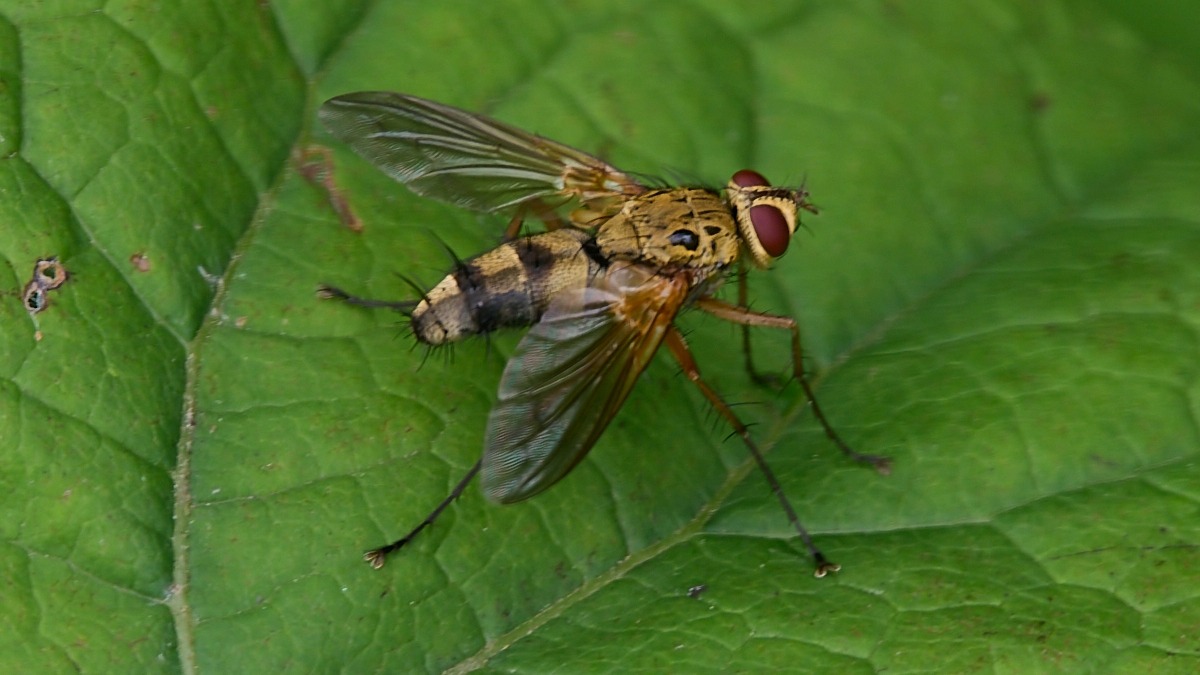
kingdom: Animalia
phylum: Arthropoda
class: Insecta
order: Diptera
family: Tachinidae
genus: Dexiosoma
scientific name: Dexiosoma caninum
